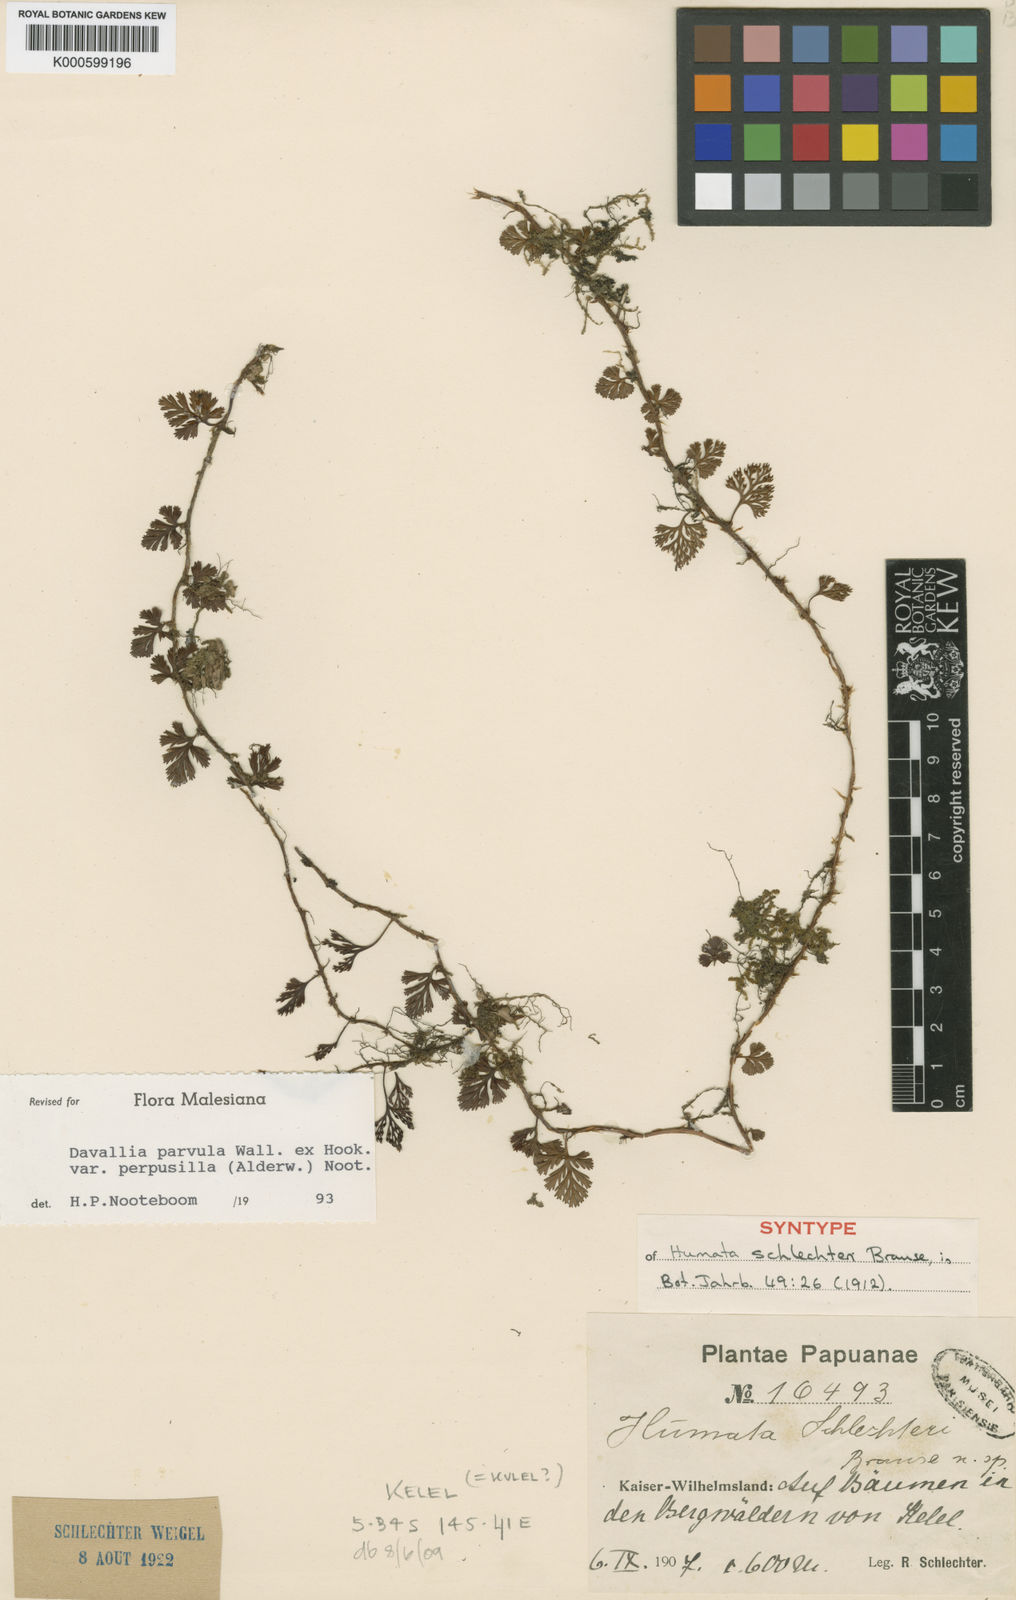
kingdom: Plantae
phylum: Tracheophyta
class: Polypodiopsida
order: Polypodiales
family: Davalliaceae
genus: Davallia
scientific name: Davallia epiphyll
